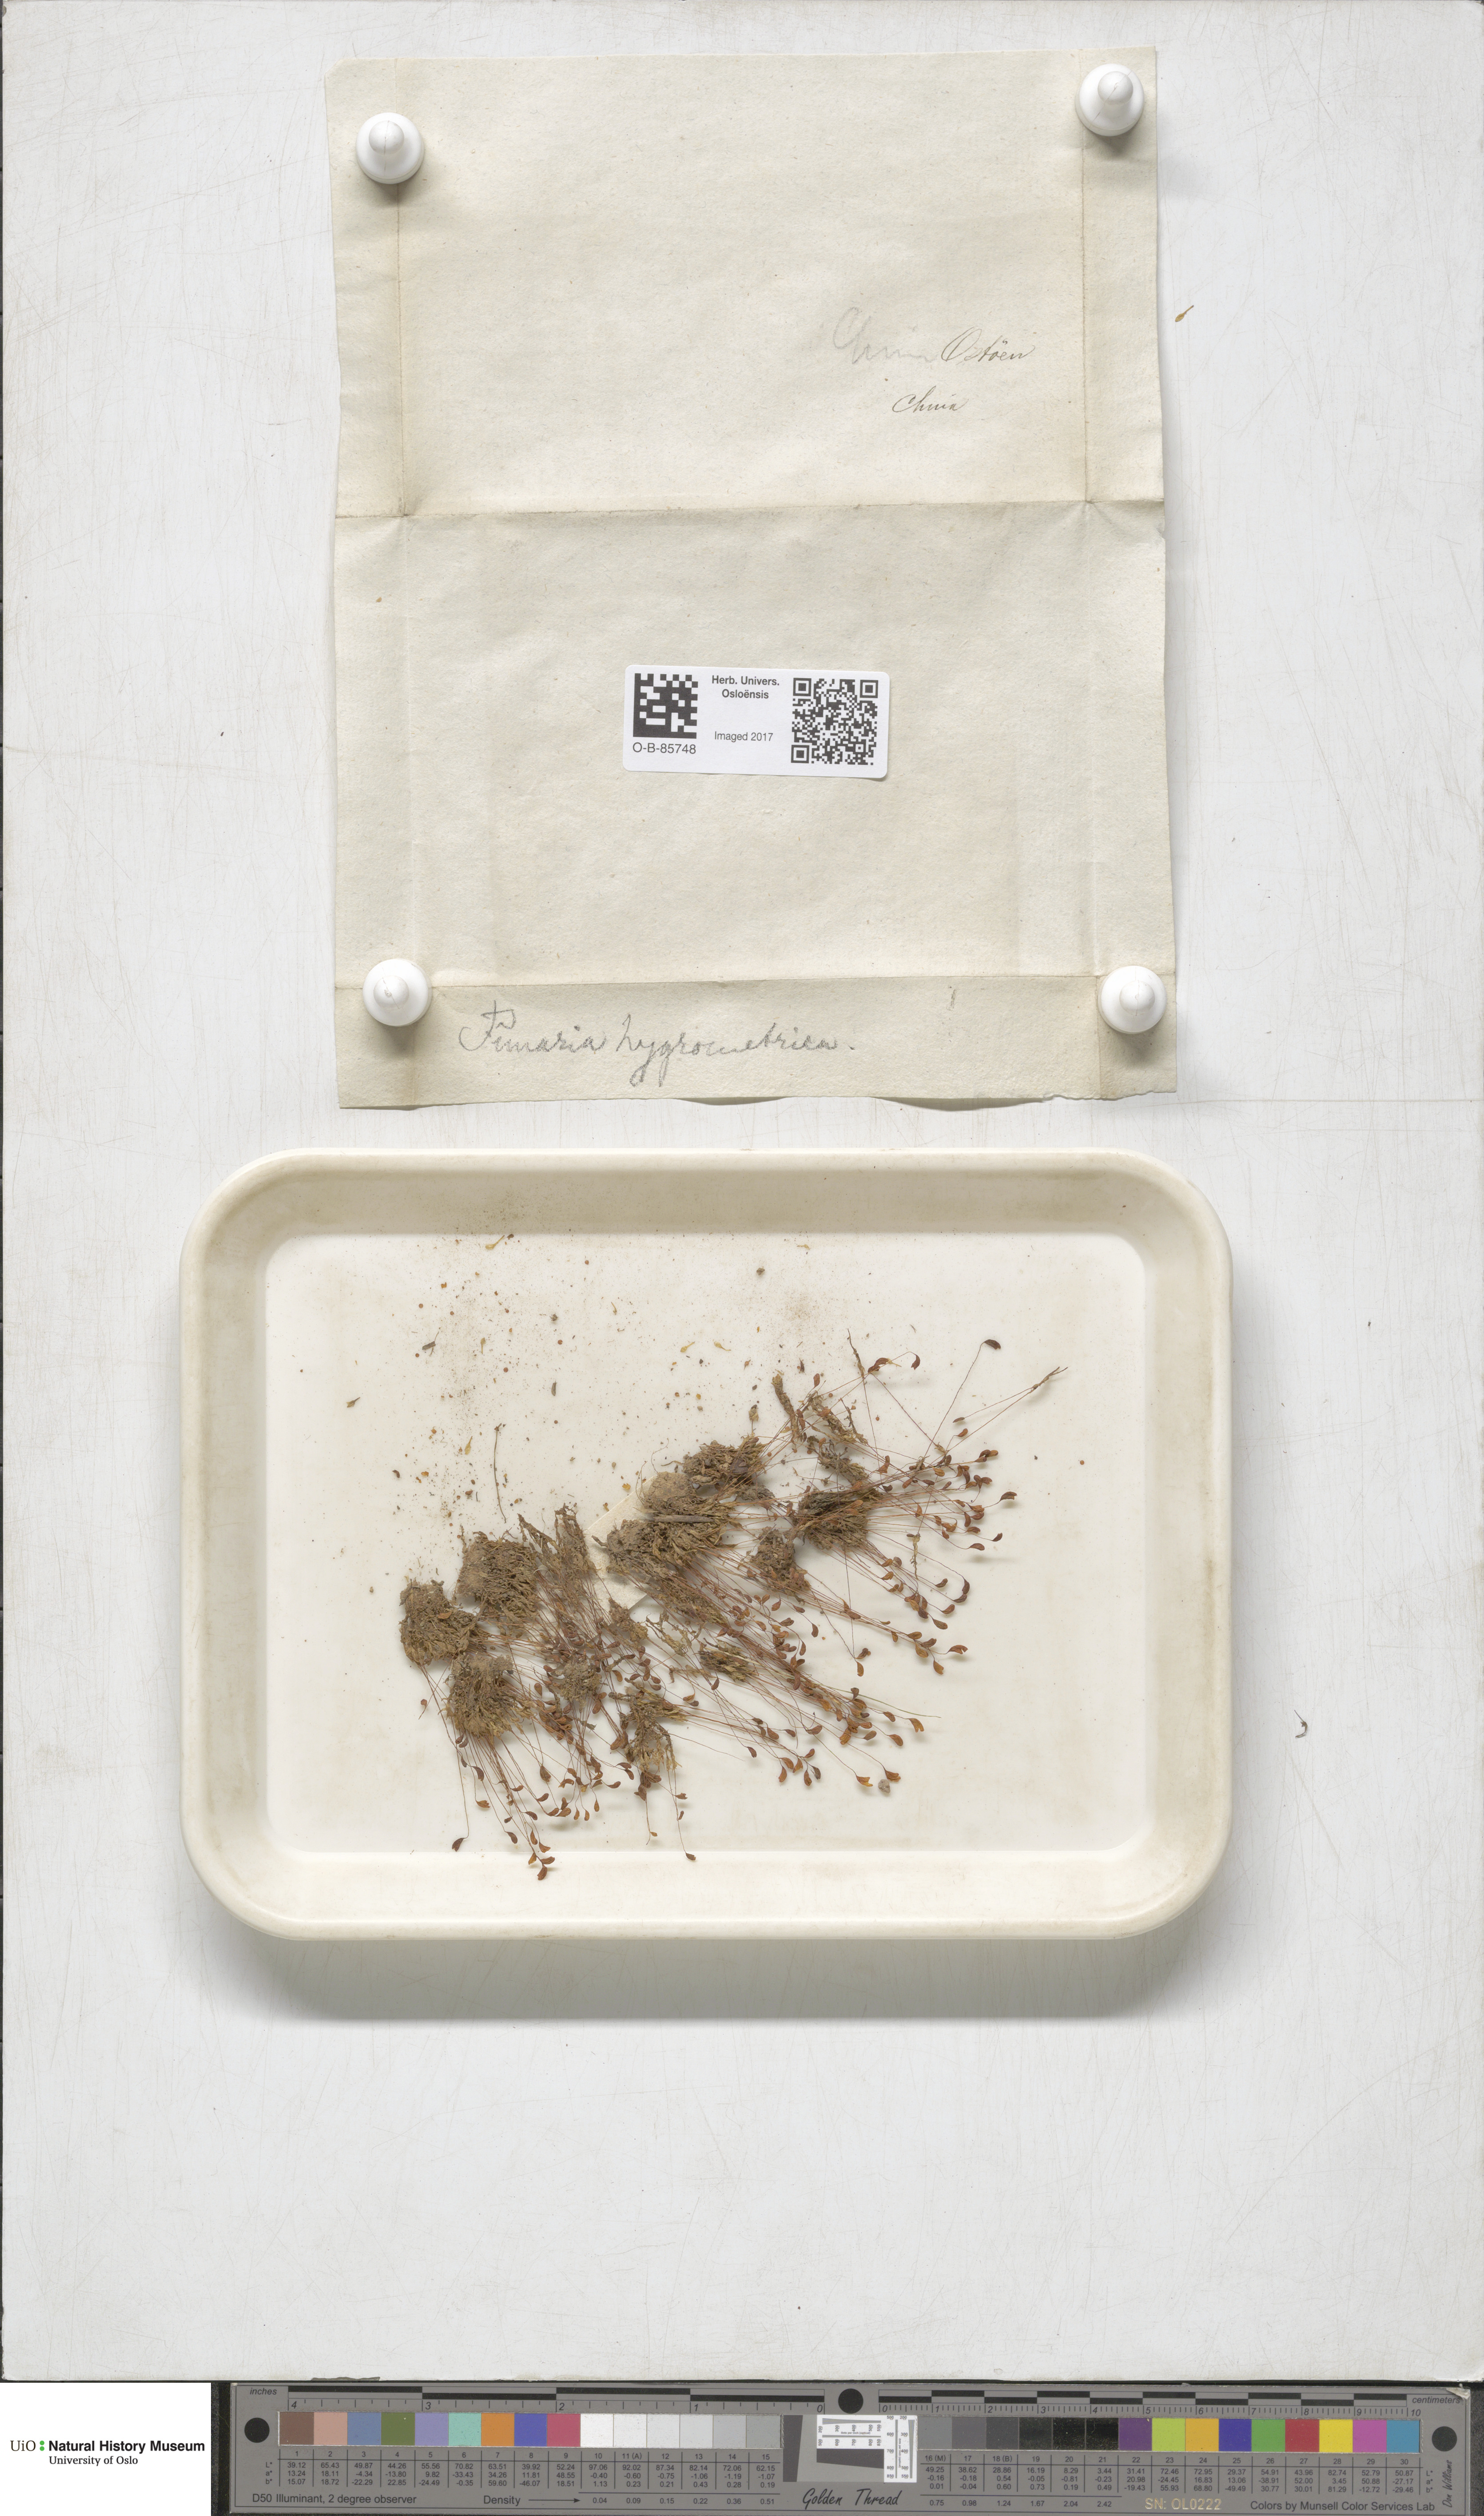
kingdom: Plantae
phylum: Bryophyta
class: Bryopsida
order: Funariales
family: Funariaceae
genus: Funaria
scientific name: Funaria hygrometrica
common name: Common cord moss
